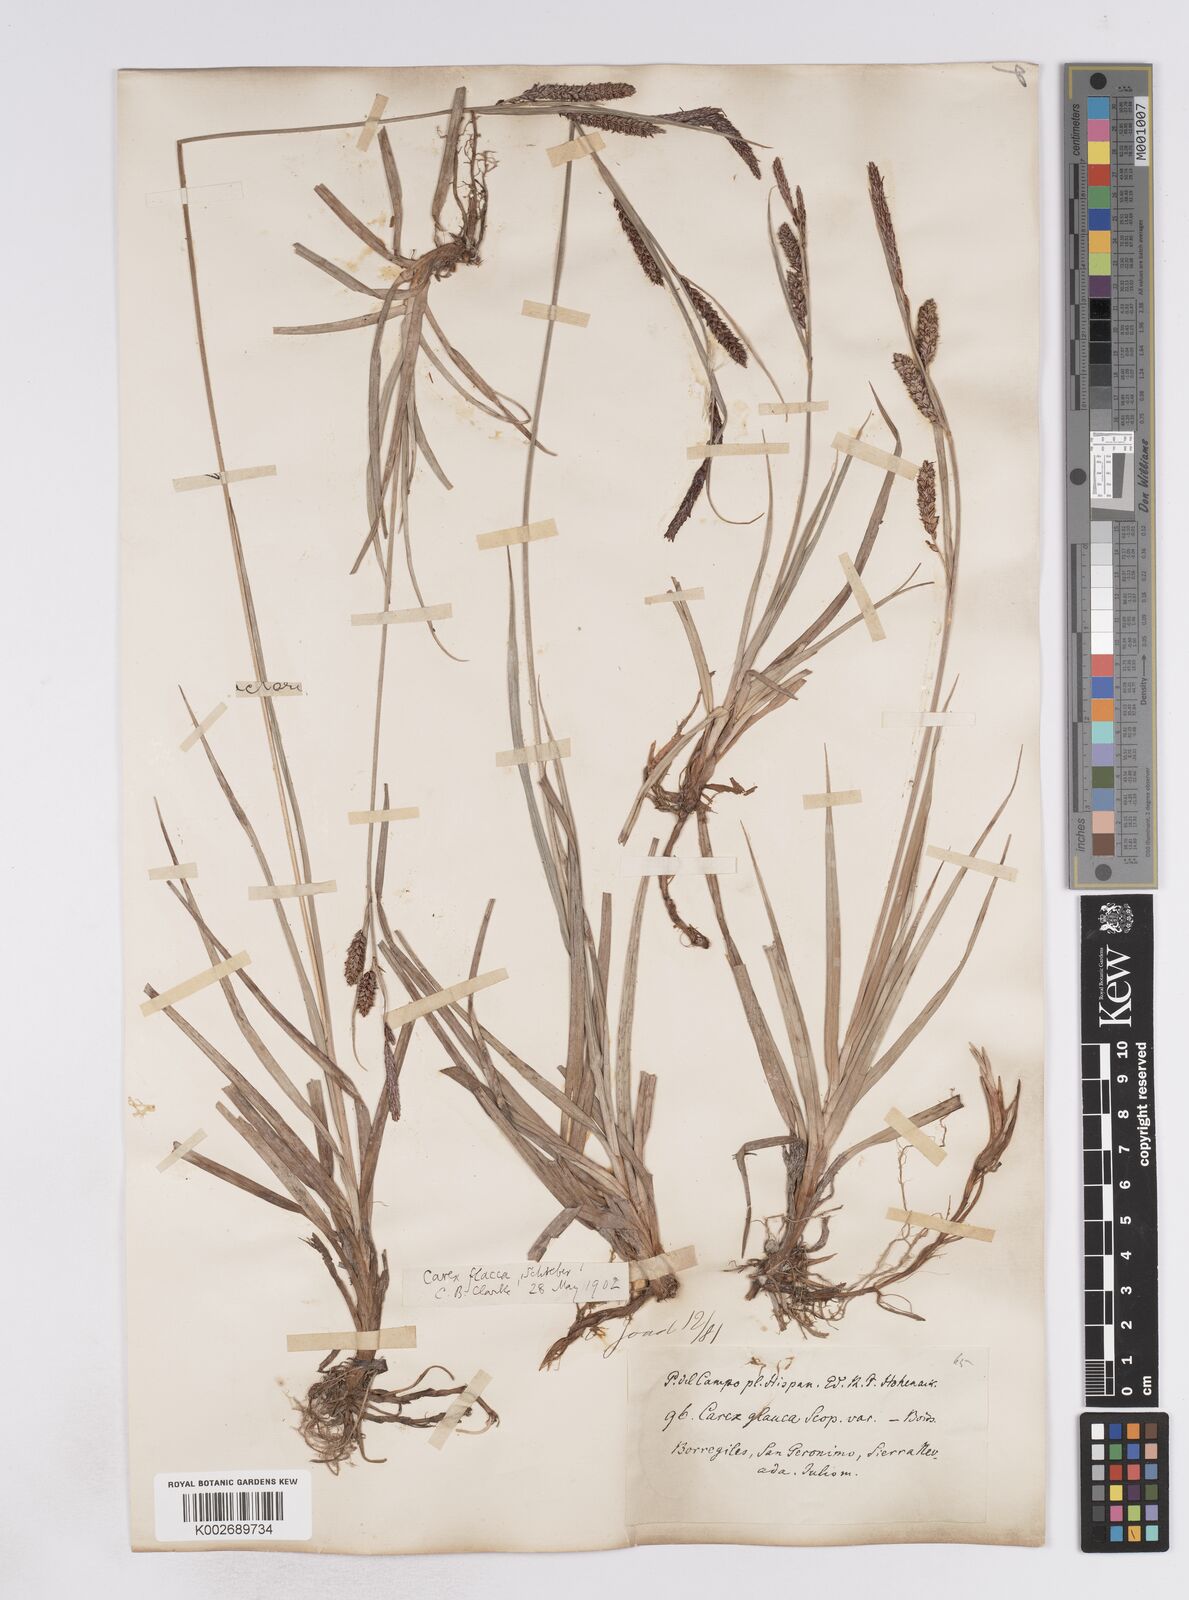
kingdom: Plantae
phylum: Tracheophyta
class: Liliopsida
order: Poales
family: Cyperaceae
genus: Carex
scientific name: Carex flacca
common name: Glaucous sedge
